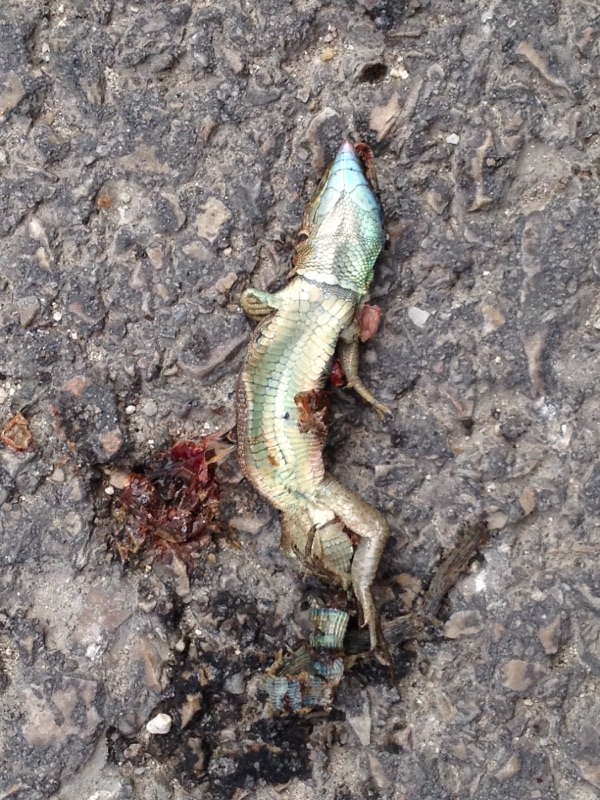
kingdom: Animalia
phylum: Chordata
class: Squamata
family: Lacertidae
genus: Lacerta
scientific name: Lacerta viridis
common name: European green lizard
